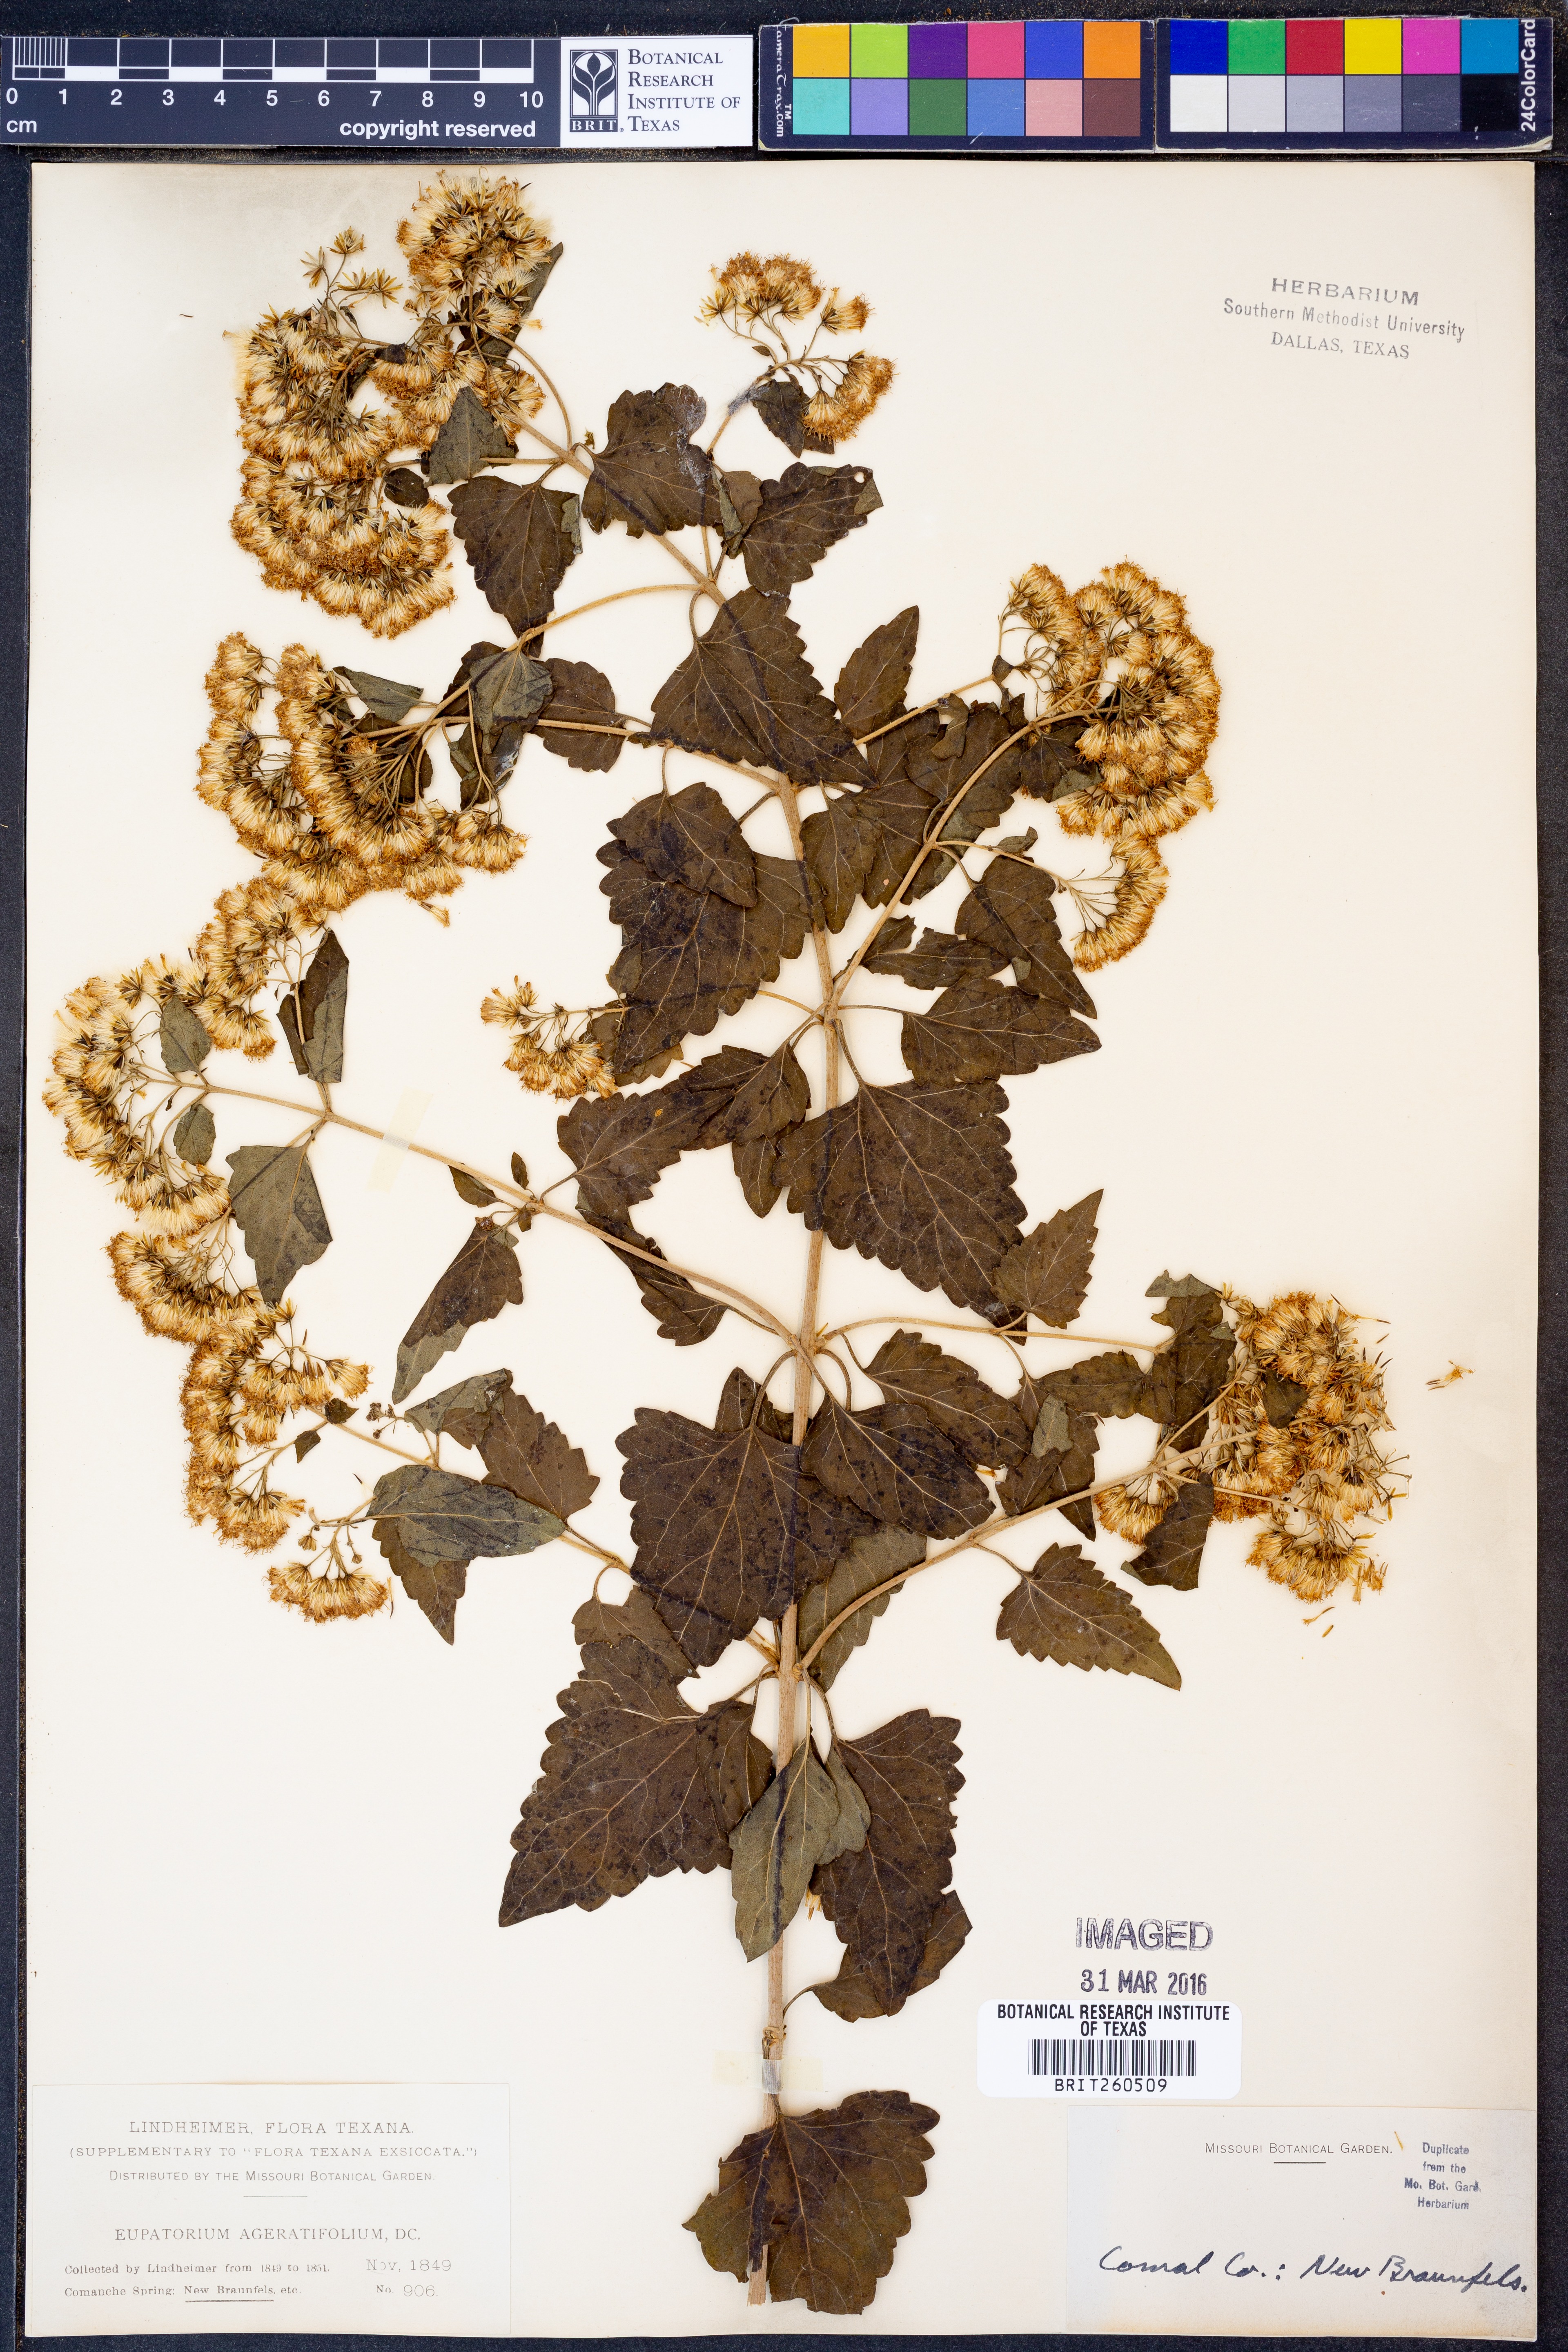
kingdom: Plantae
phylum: Tracheophyta
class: Magnoliopsida
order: Asterales
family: Asteraceae
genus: Ageratina
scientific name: Ageratina havanensis
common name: Havana snakeroot
